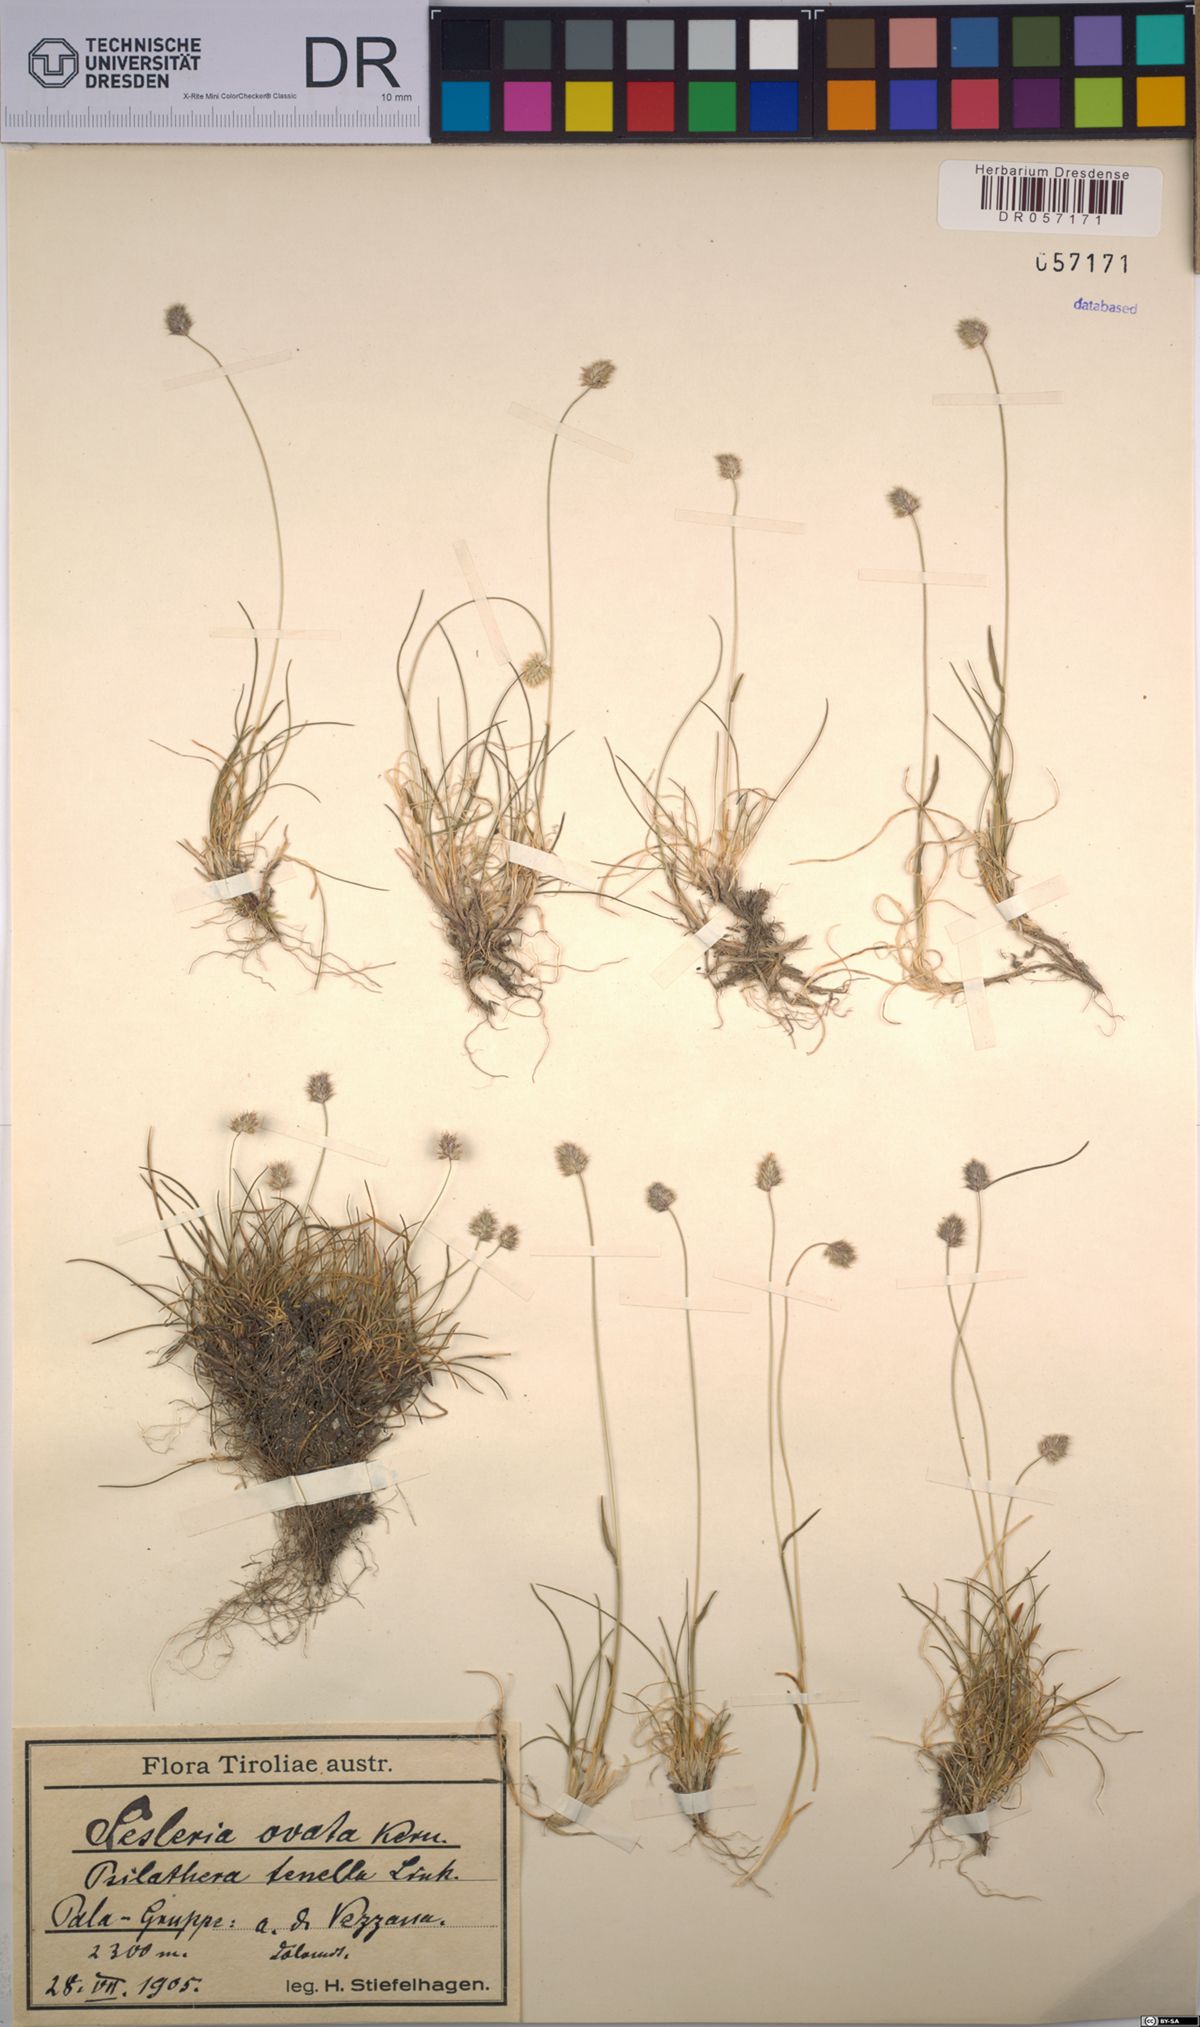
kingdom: Plantae
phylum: Tracheophyta
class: Liliopsida
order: Poales
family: Poaceae
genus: Psilathera
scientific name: Psilathera ovata
